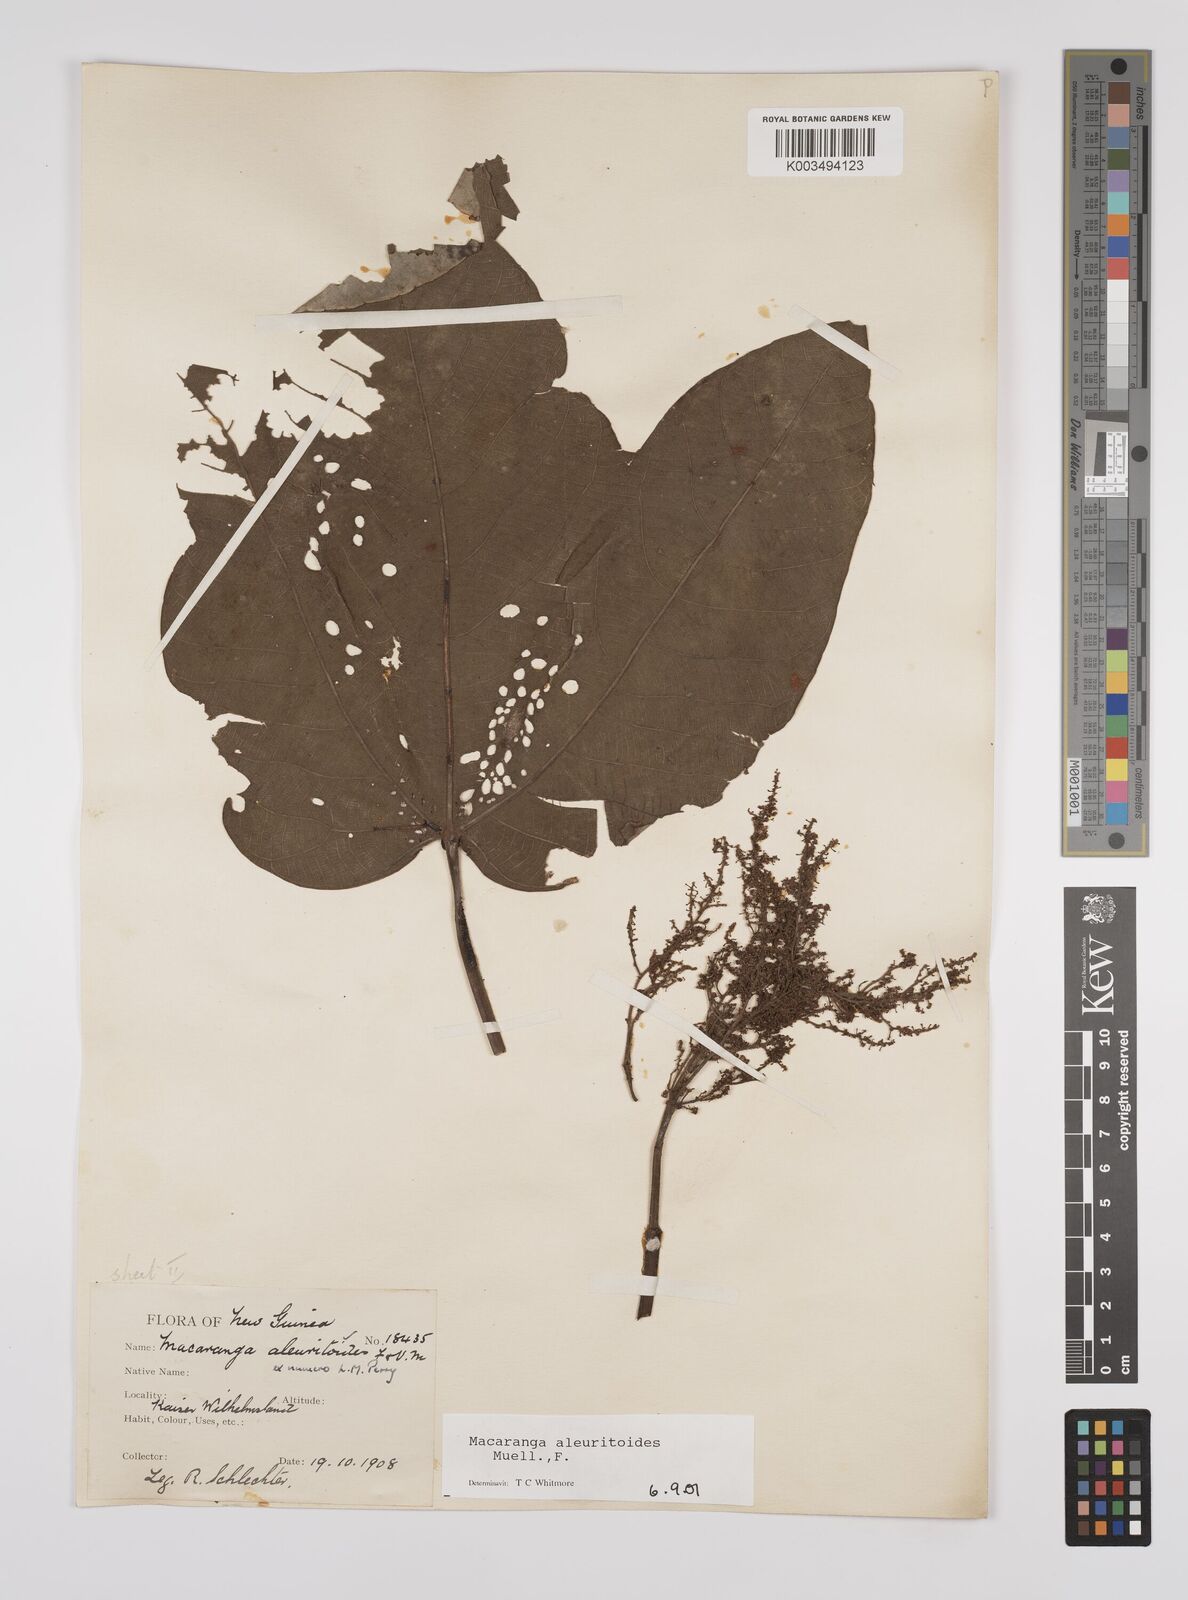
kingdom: Plantae
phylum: Tracheophyta
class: Magnoliopsida
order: Malpighiales
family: Euphorbiaceae
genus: Macaranga
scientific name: Macaranga aleuritoides
